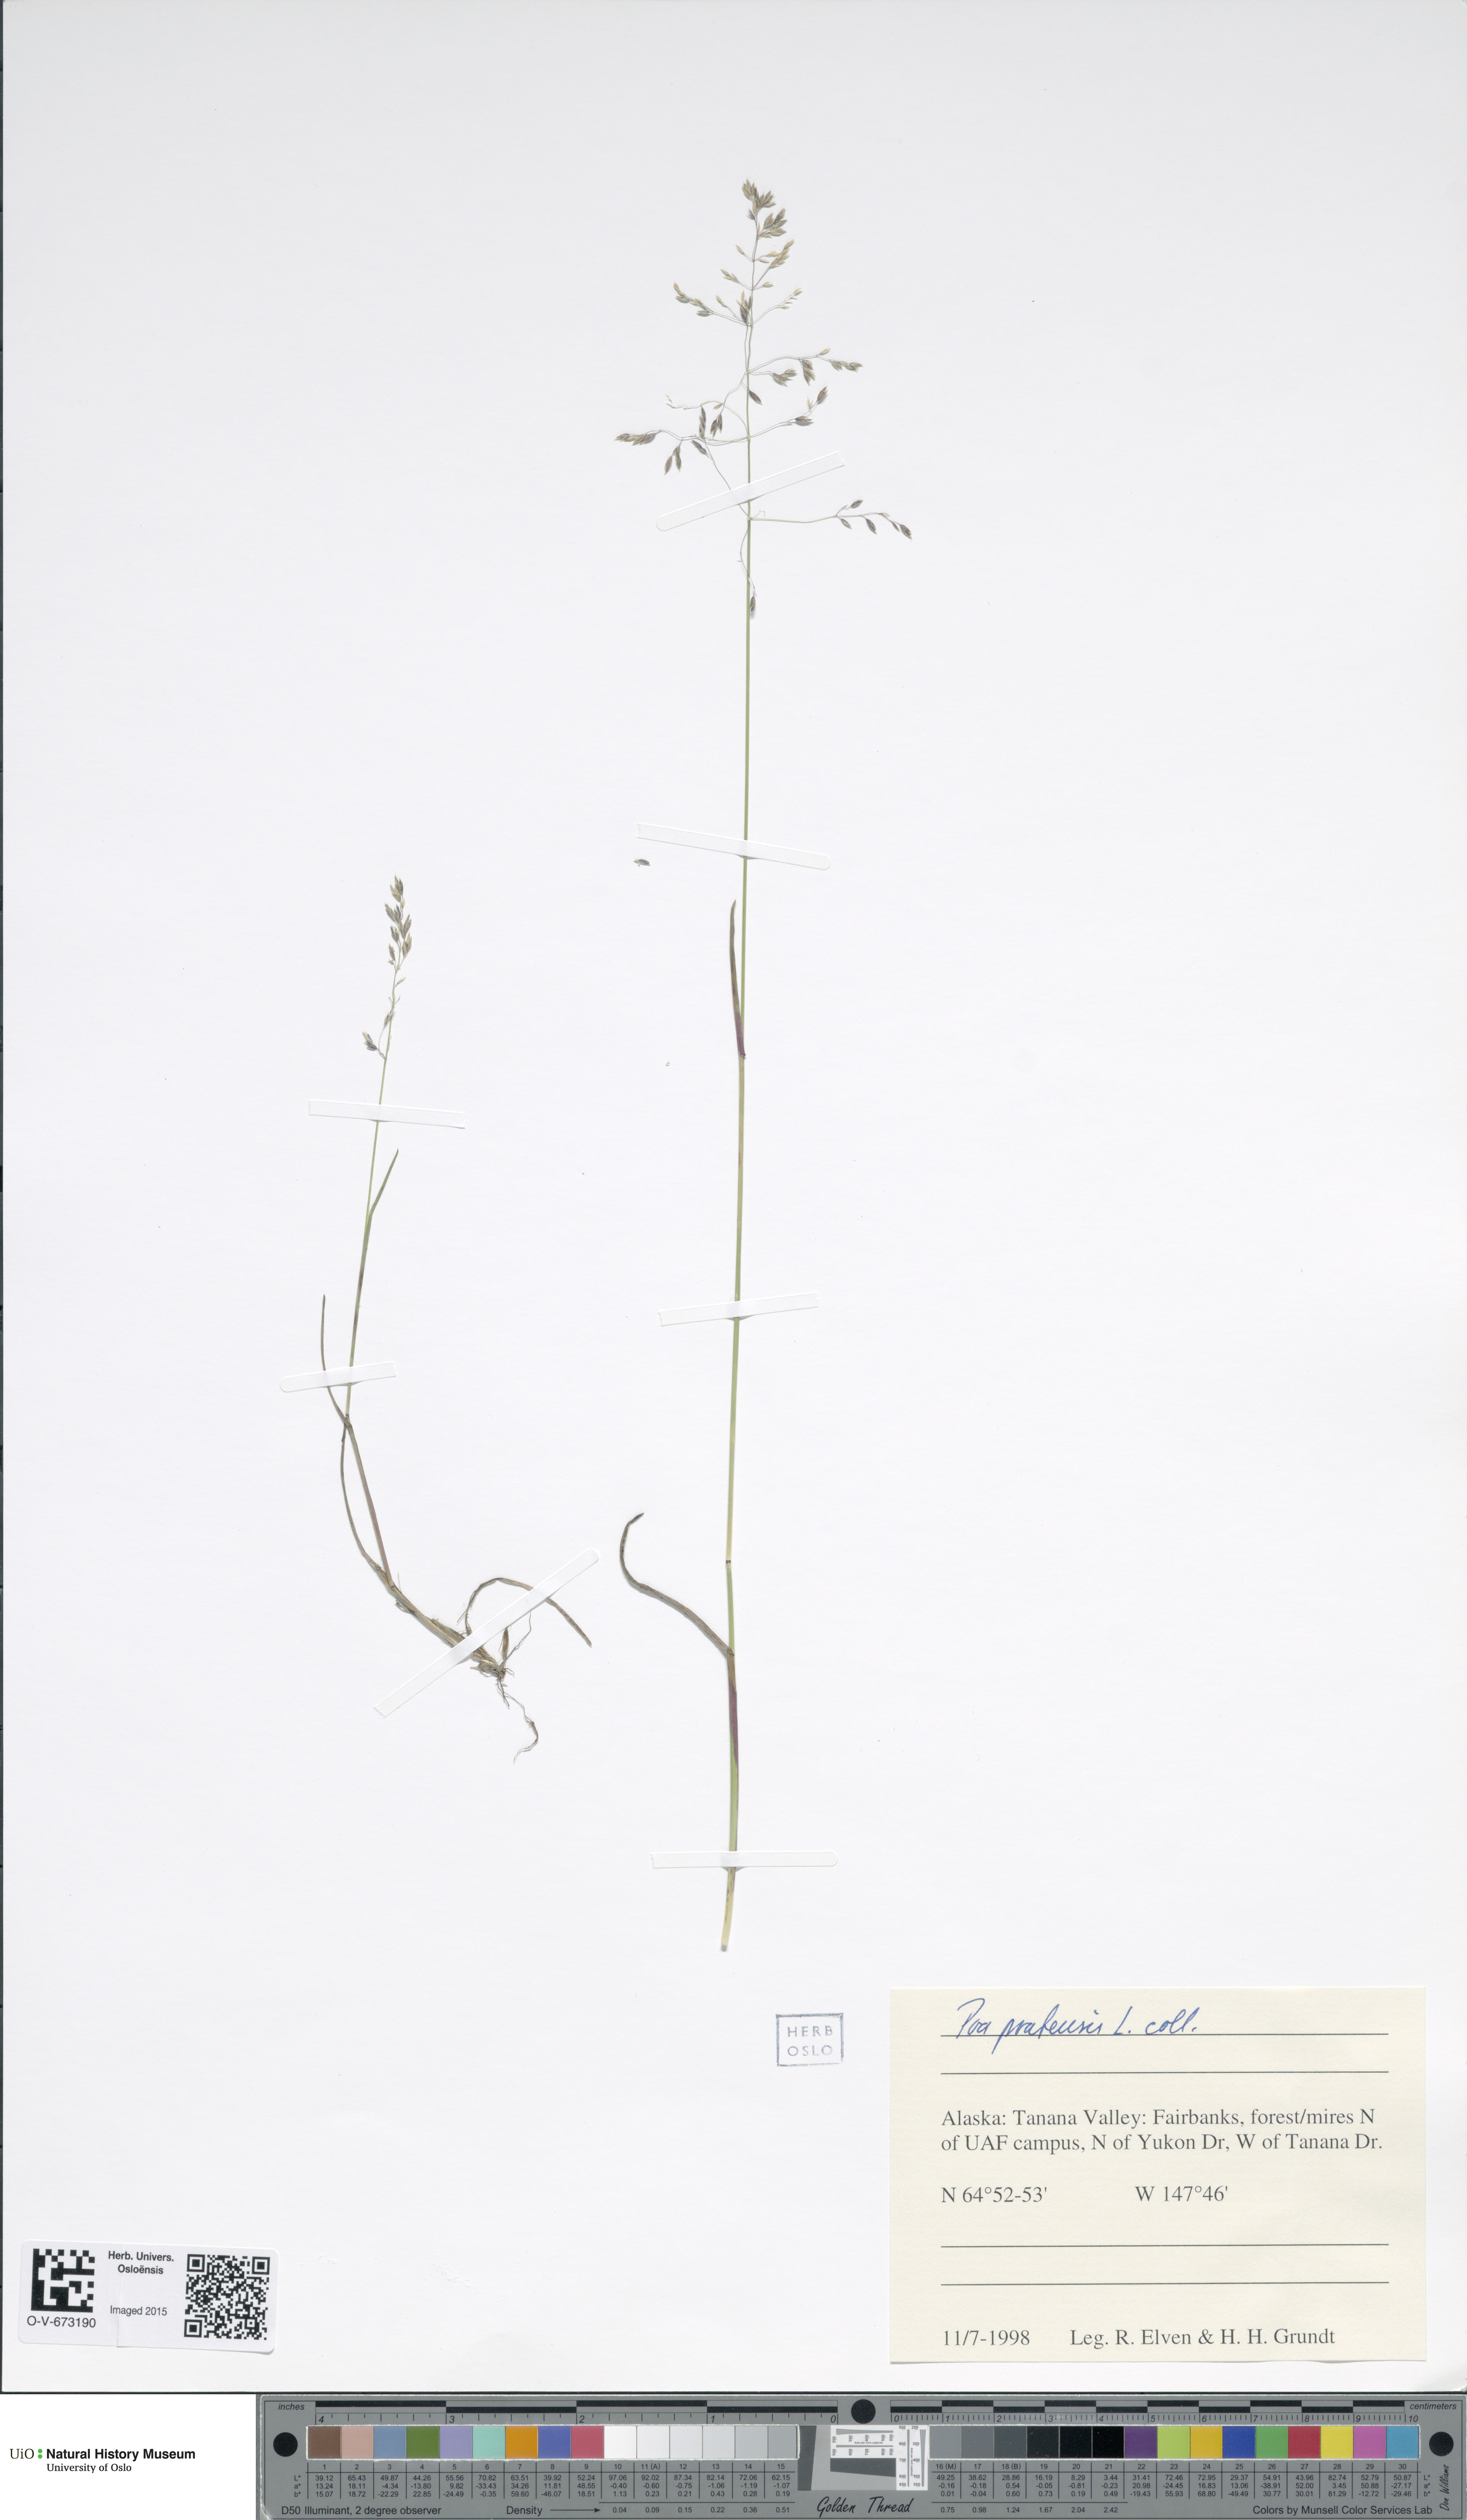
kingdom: Plantae
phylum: Tracheophyta
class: Liliopsida
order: Poales
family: Poaceae
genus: Poa
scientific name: Poa pratensis
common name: Kentucky bluegrass
